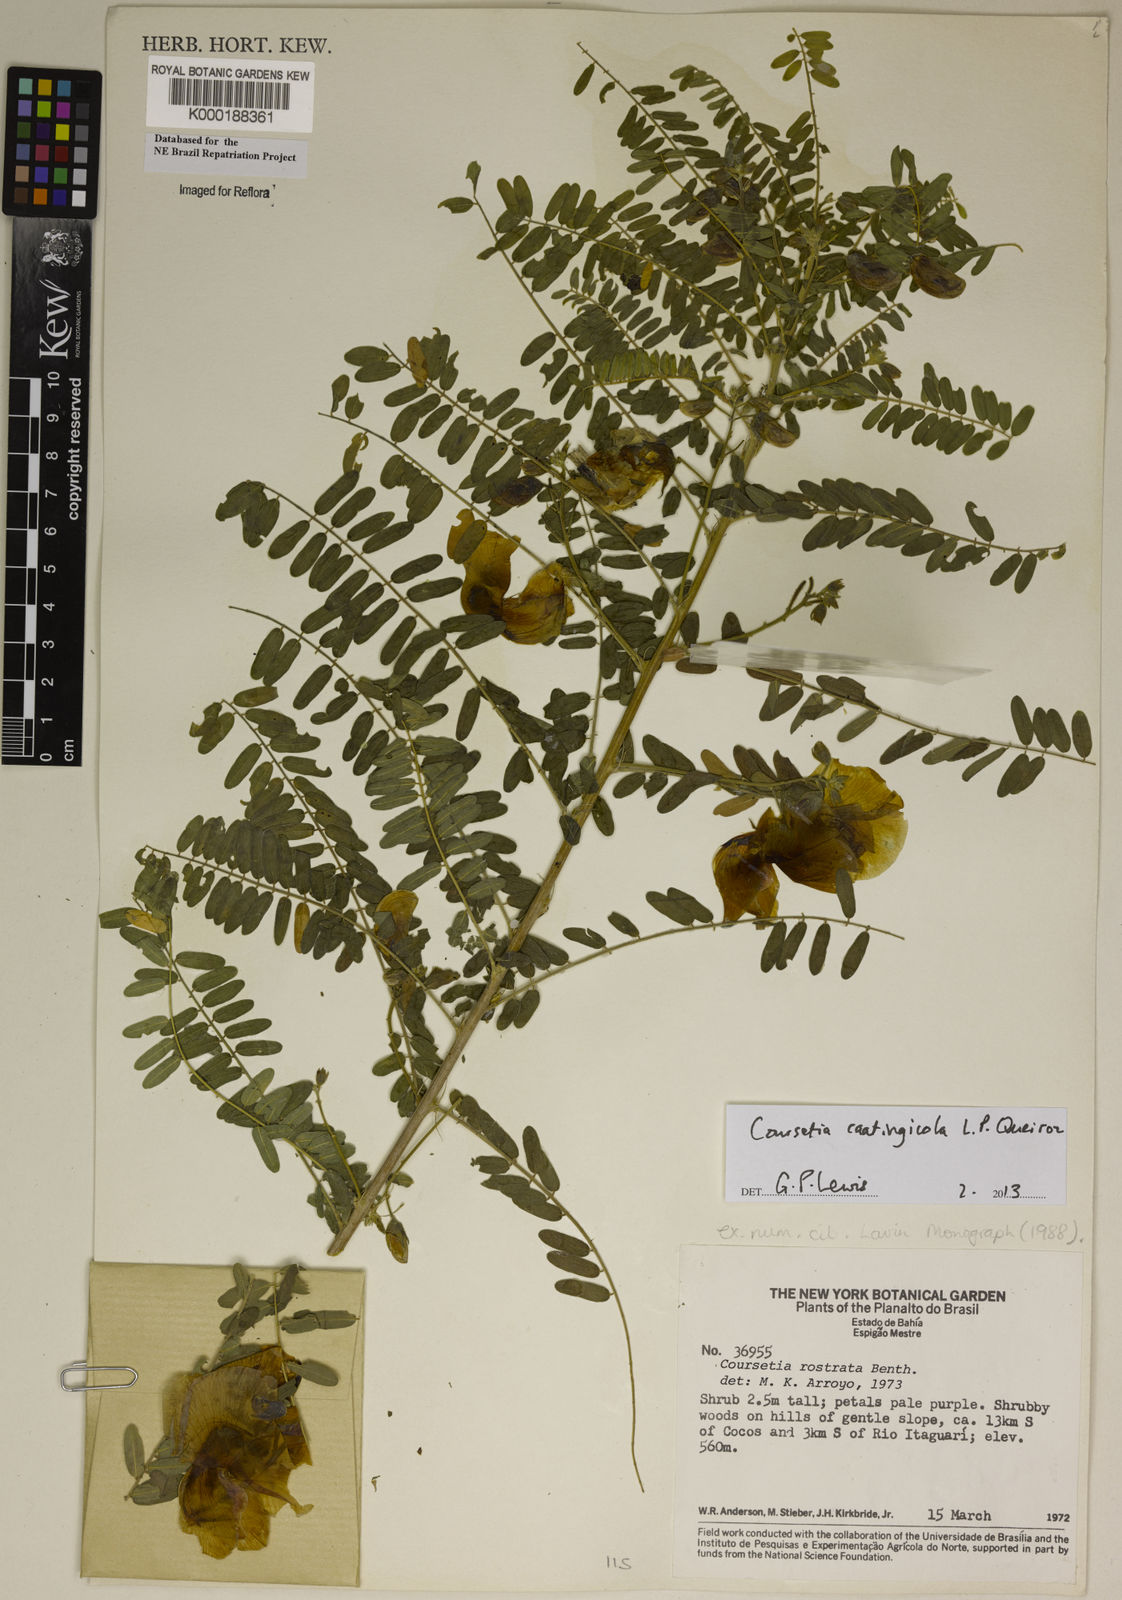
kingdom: Plantae
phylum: Tracheophyta
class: Magnoliopsida
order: Fabales
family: Fabaceae
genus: Coursetia
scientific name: Coursetia rostrata
